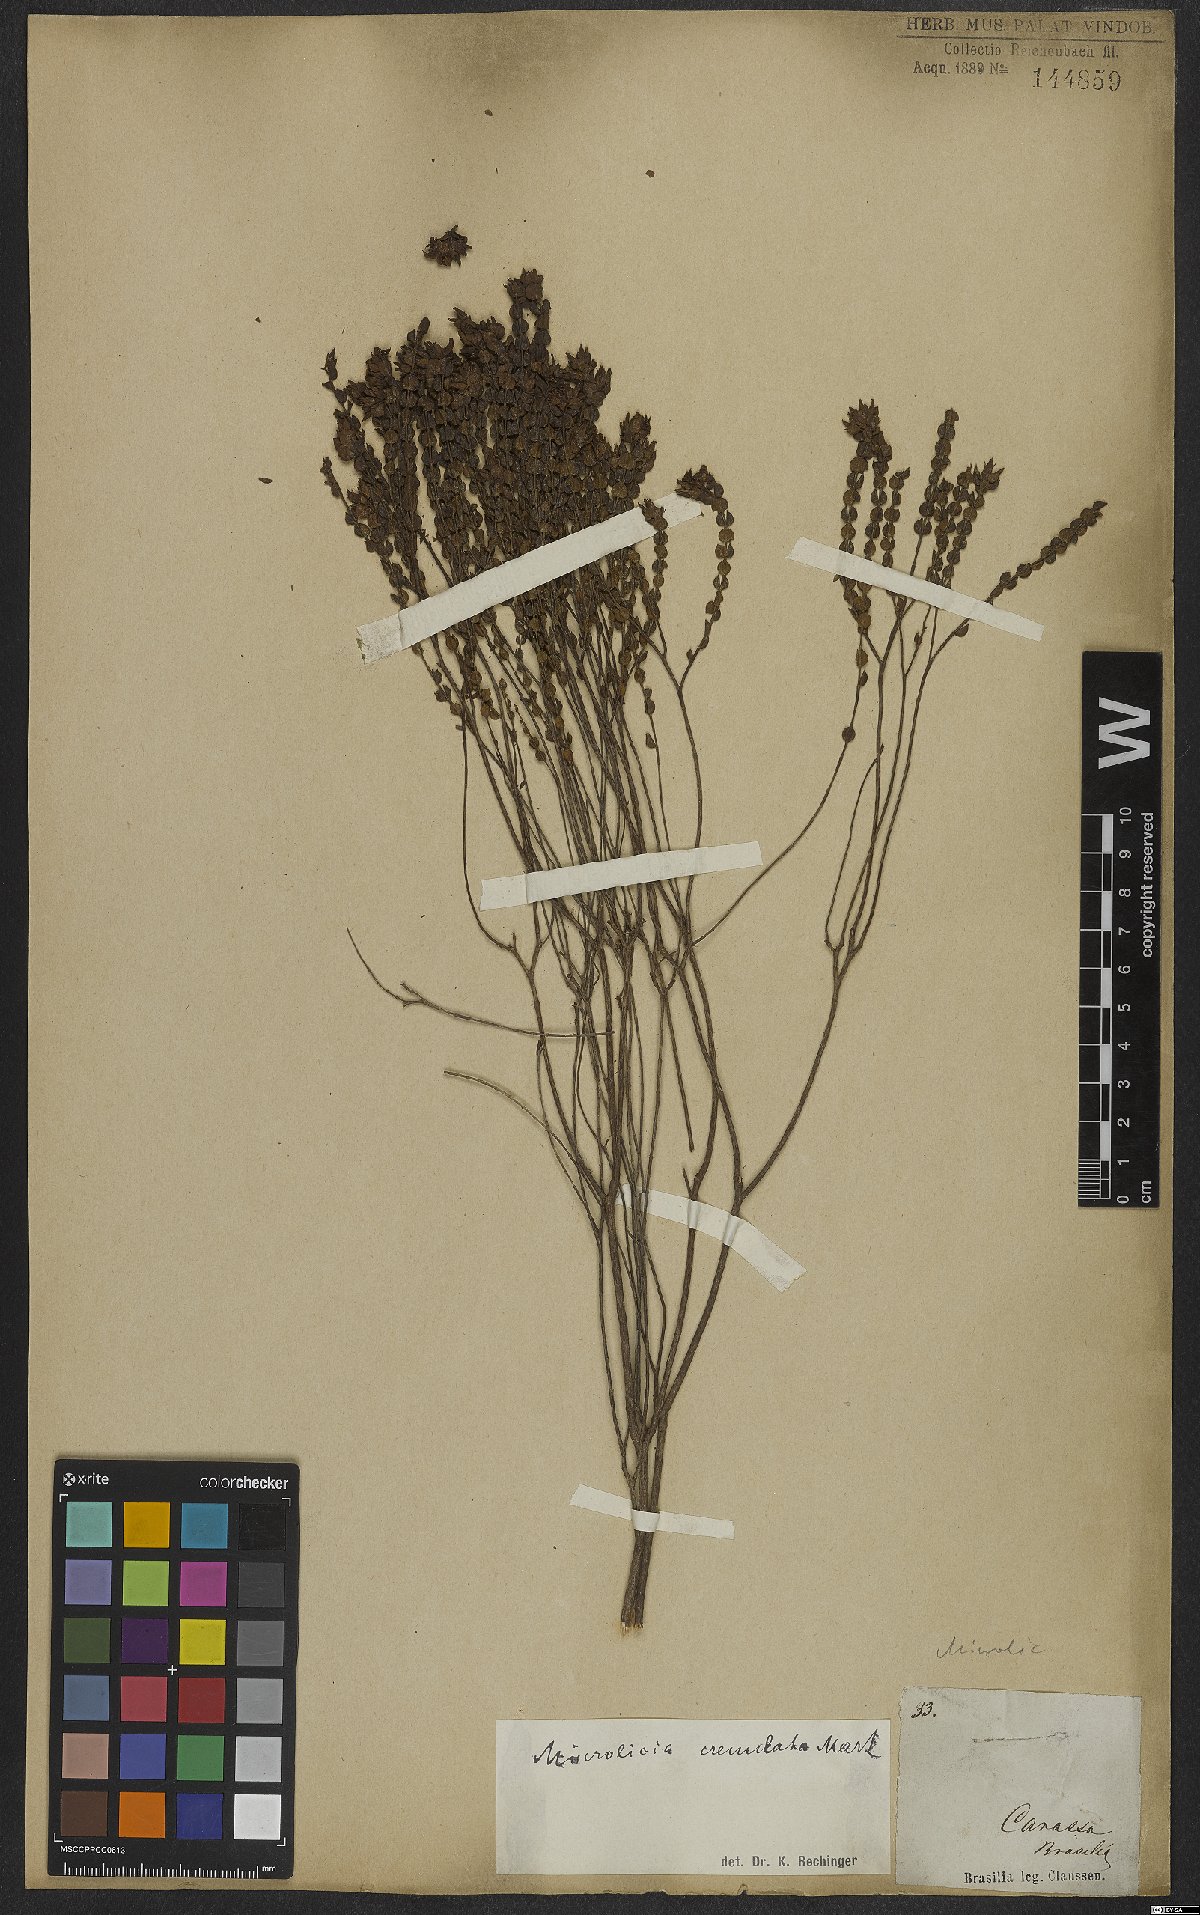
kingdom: Plantae
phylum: Tracheophyta
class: Magnoliopsida
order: Myrtales
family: Melastomataceae
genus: Microlicia
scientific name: Microlicia crenulata
